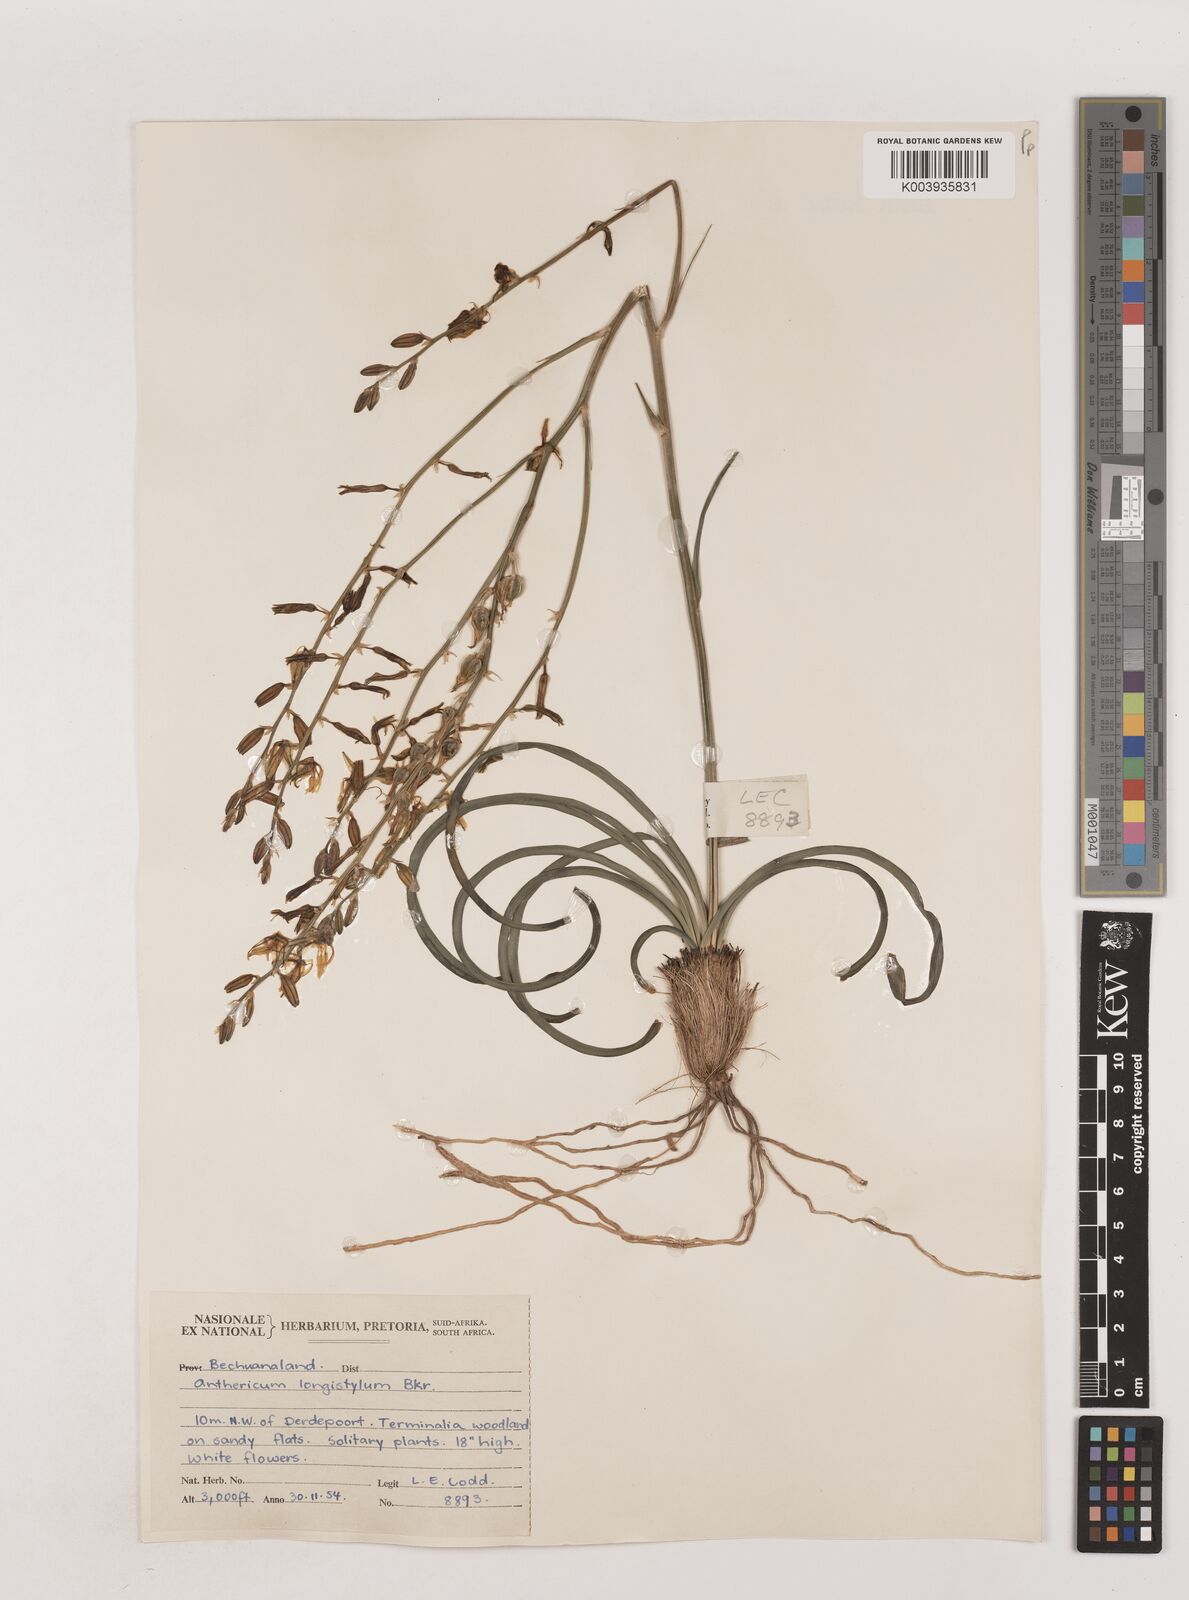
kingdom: Plantae
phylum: Tracheophyta
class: Liliopsida
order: Asparagales
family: Asparagaceae
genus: Chlorophytum
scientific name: Chlorophytum recurvifolium
